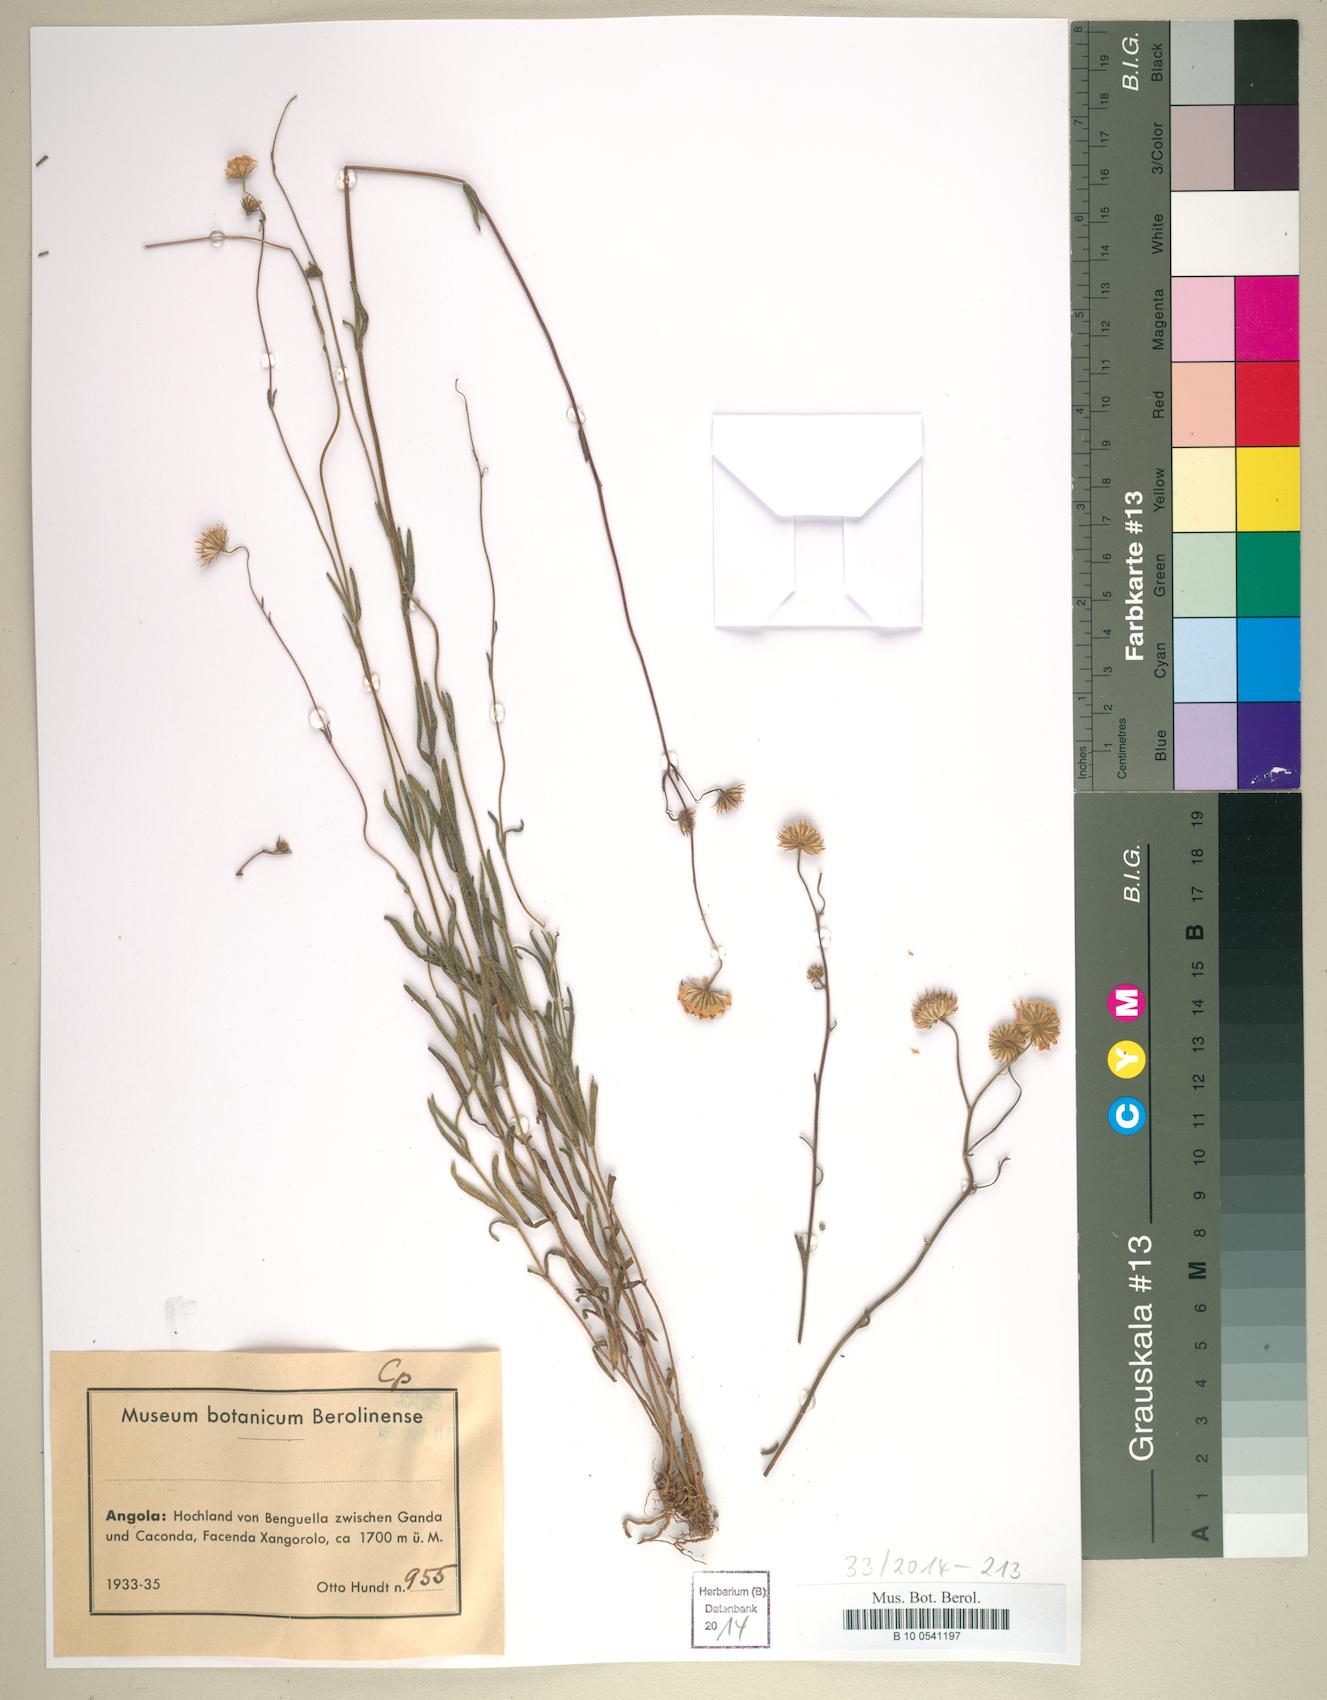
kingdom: Plantae
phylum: Tracheophyta
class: Magnoliopsida
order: Asterales
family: Asteraceae
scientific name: Asteraceae
